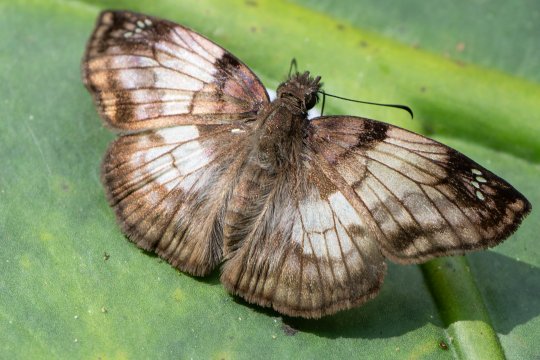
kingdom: Animalia
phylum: Arthropoda
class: Insecta
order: Lepidoptera
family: Hesperiidae
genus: Mylon
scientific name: Mylon maimon
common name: Common Mylon
